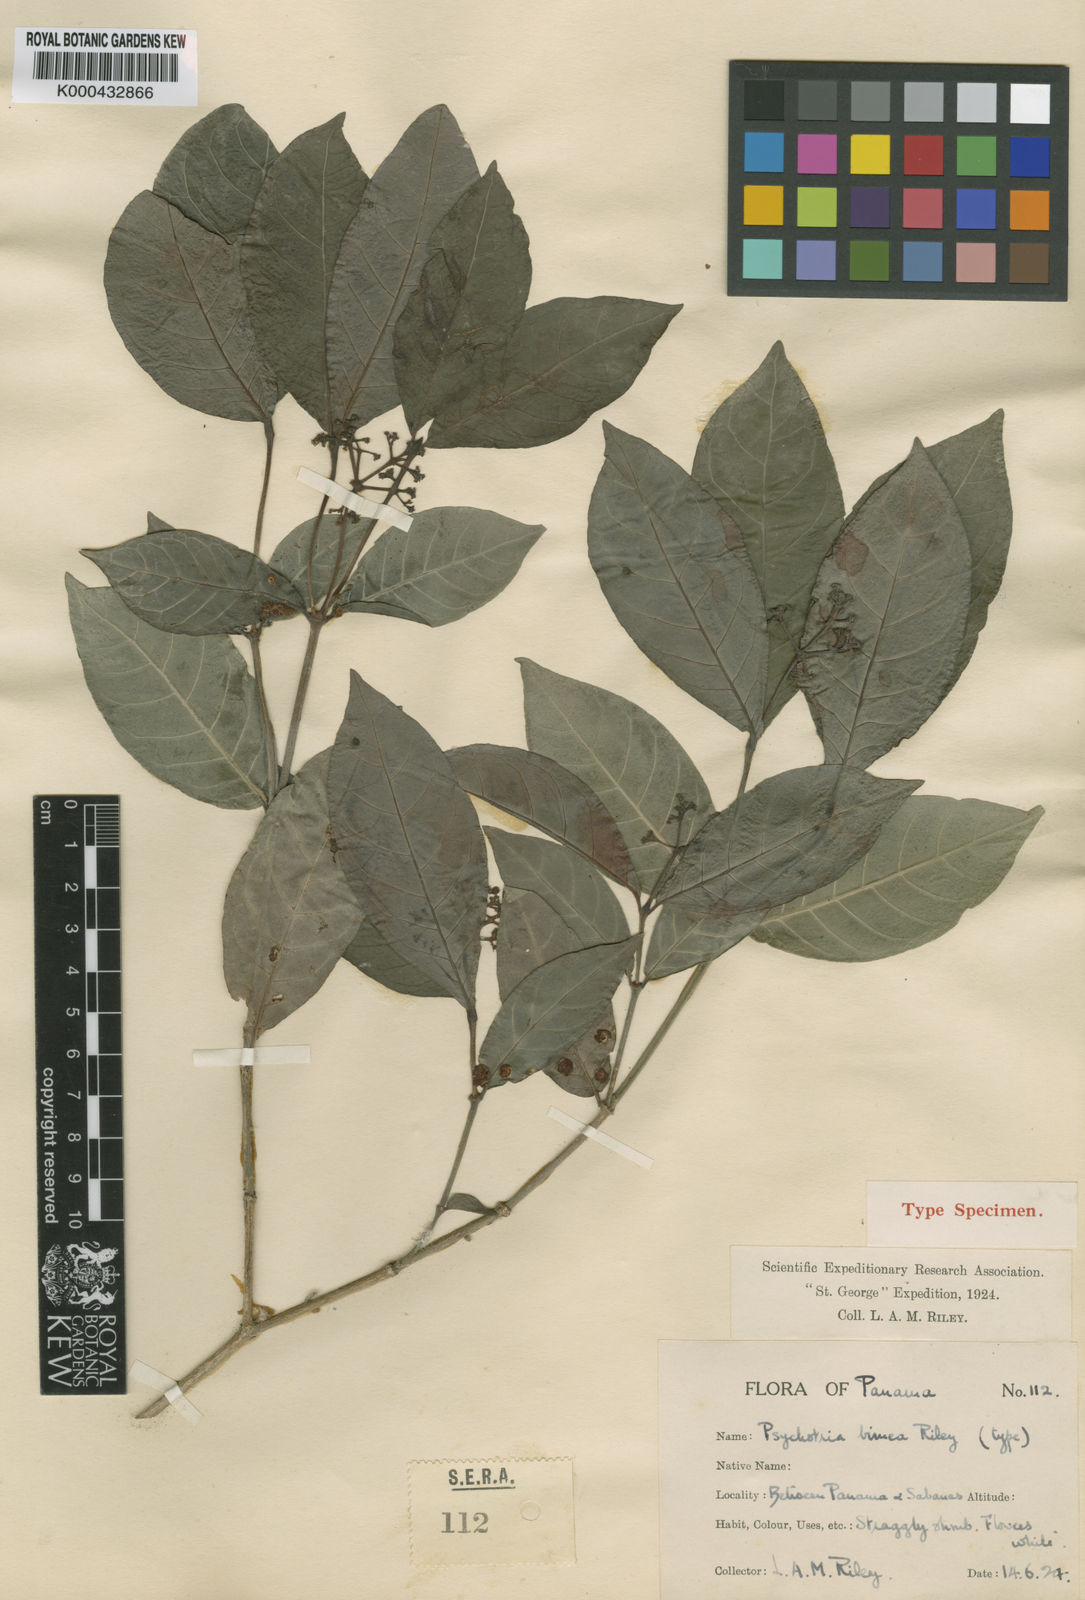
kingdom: Plantae
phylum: Tracheophyta
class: Magnoliopsida
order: Gentianales
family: Rubiaceae
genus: Psychotria
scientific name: Psychotria horizontalis
